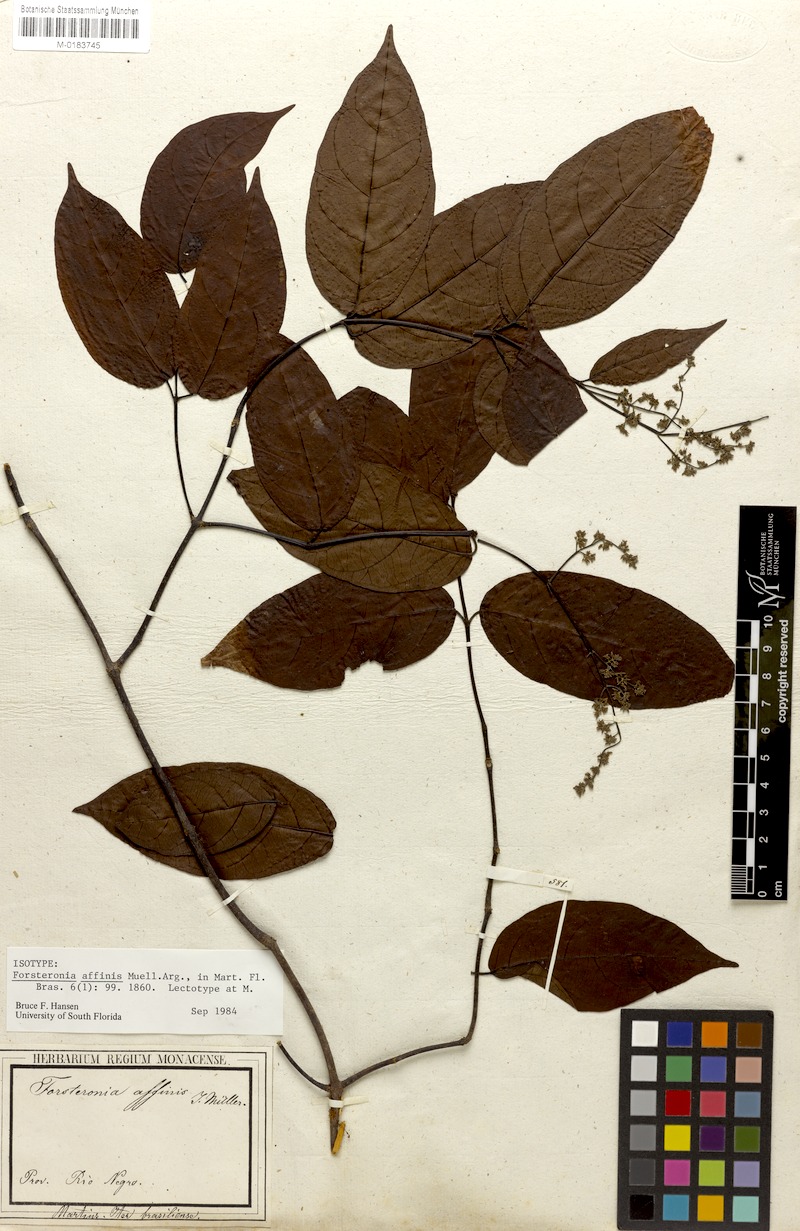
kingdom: Plantae
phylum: Tracheophyta
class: Magnoliopsida
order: Gentianales
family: Apocynaceae
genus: Forsteronia
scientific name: Forsteronia affinis
